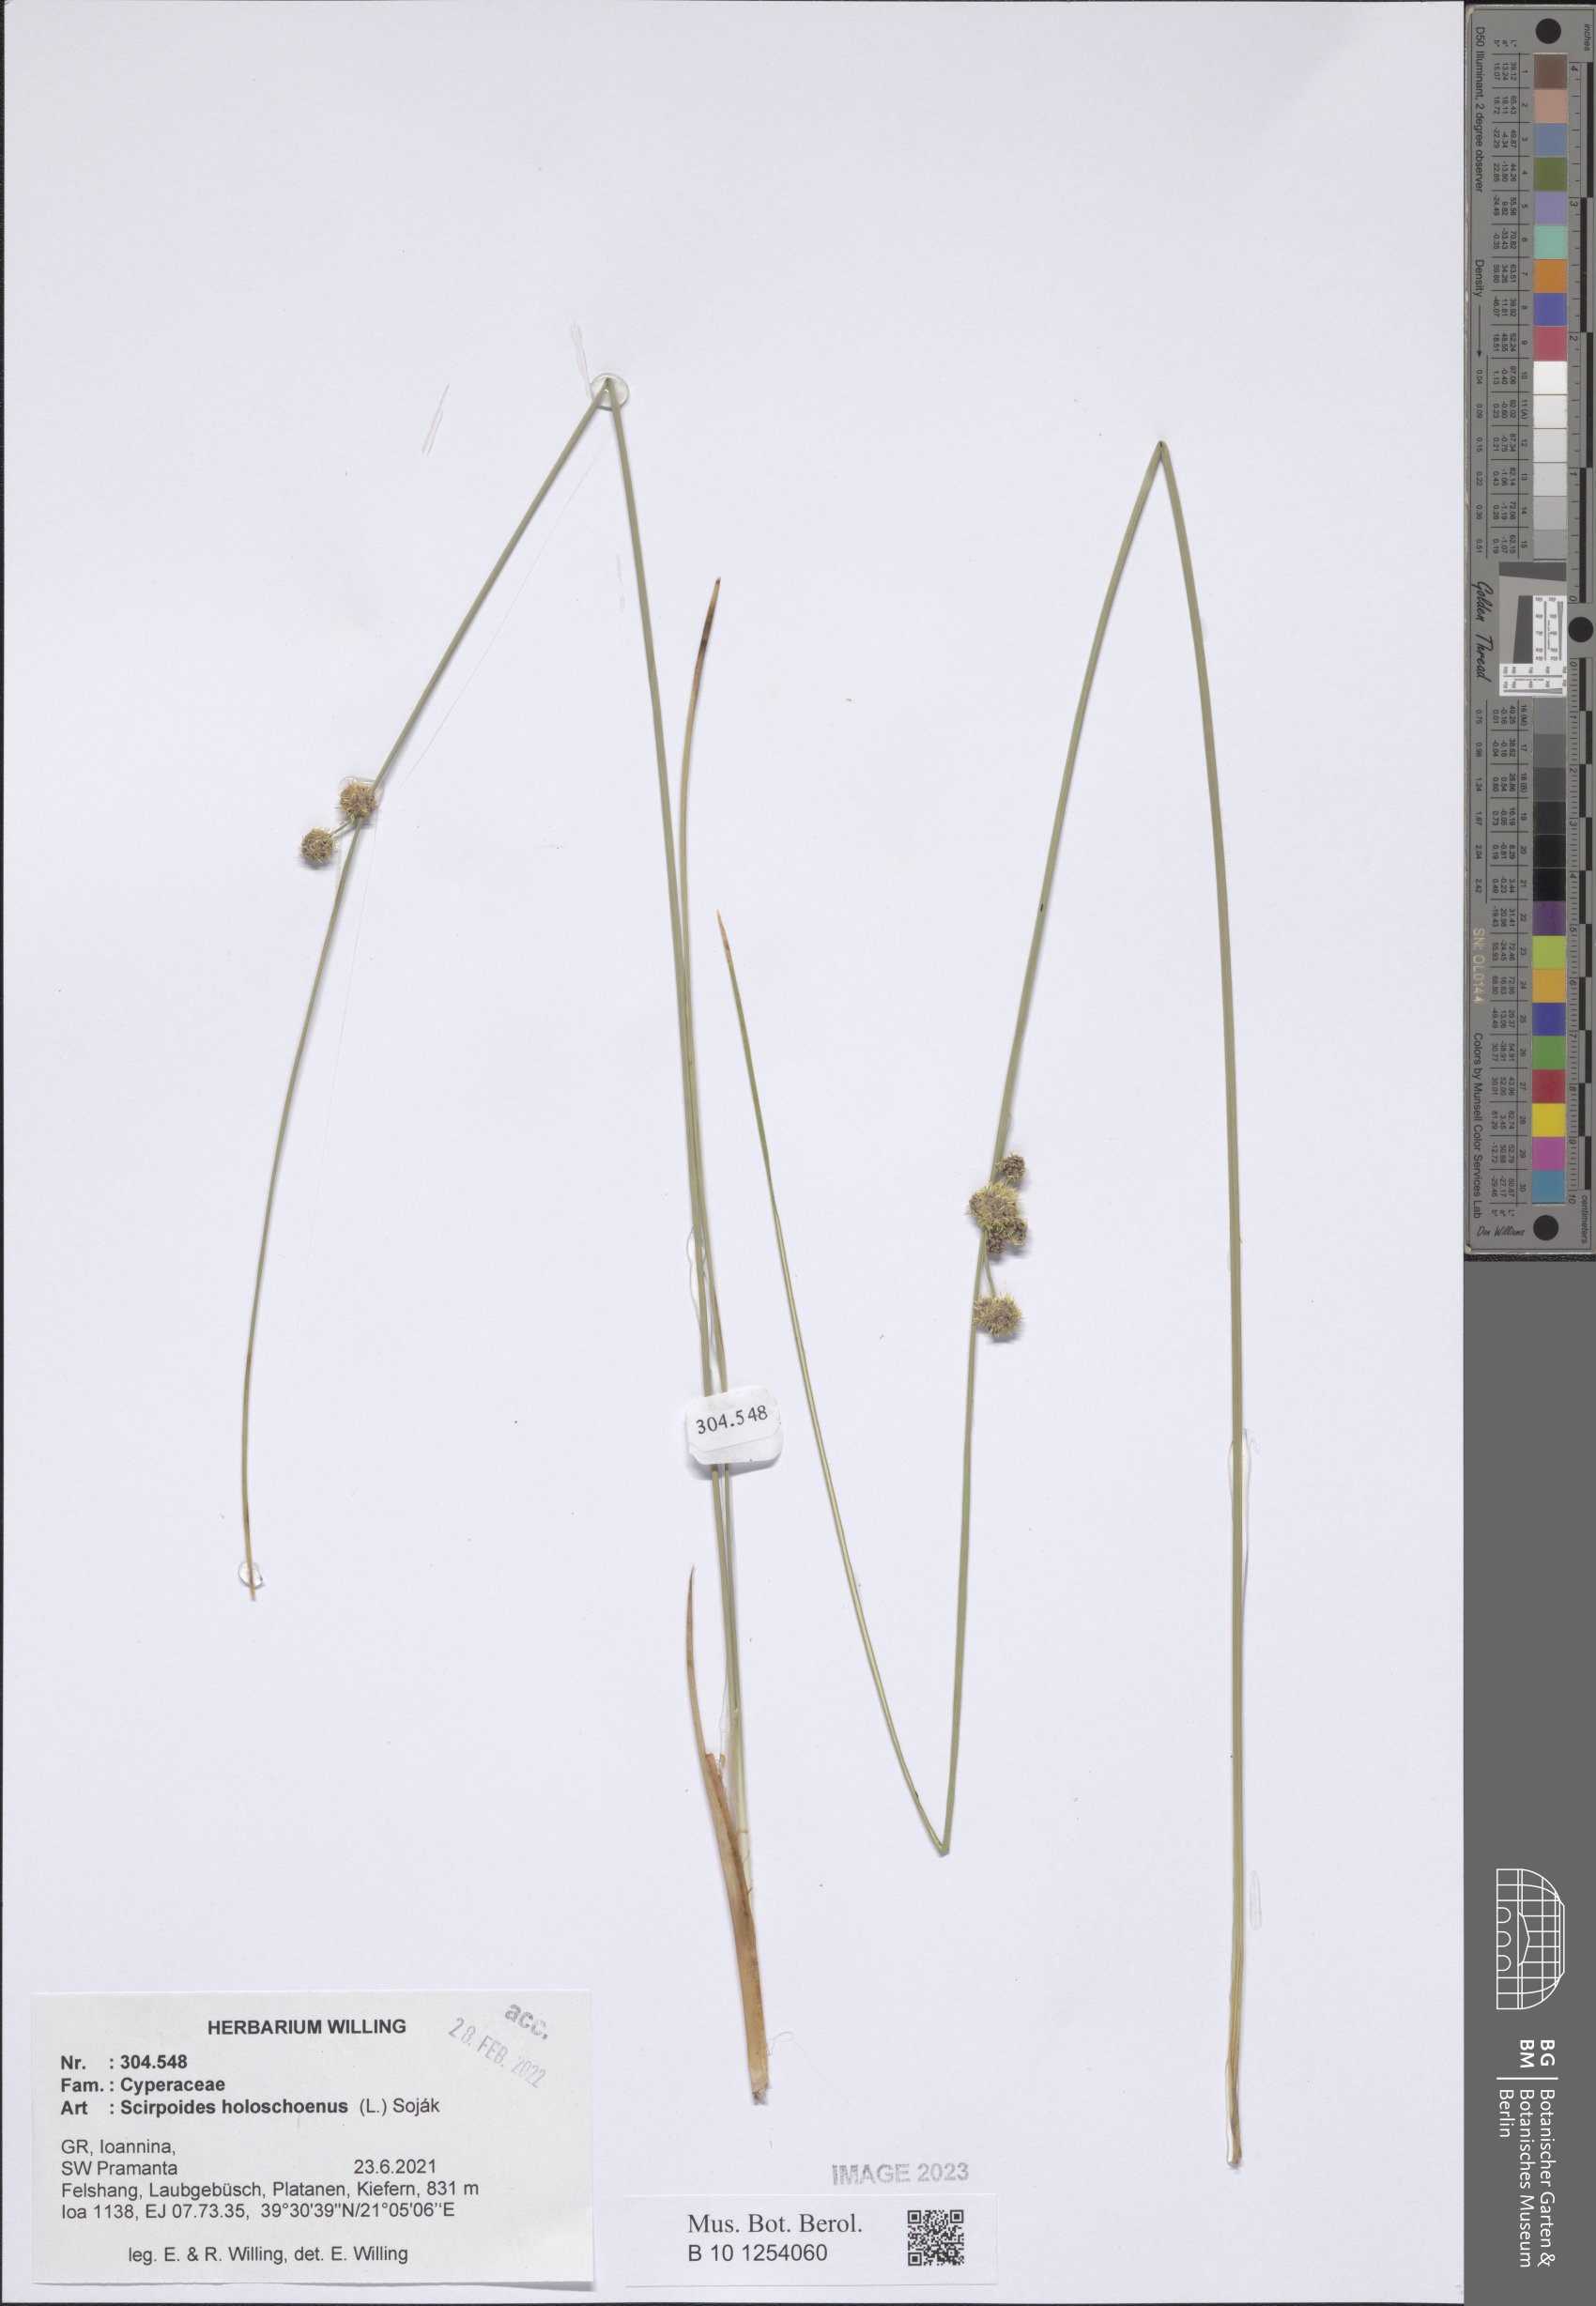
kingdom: Plantae
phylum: Tracheophyta
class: Liliopsida
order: Poales
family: Cyperaceae
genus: Scirpoides
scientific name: Scirpoides
